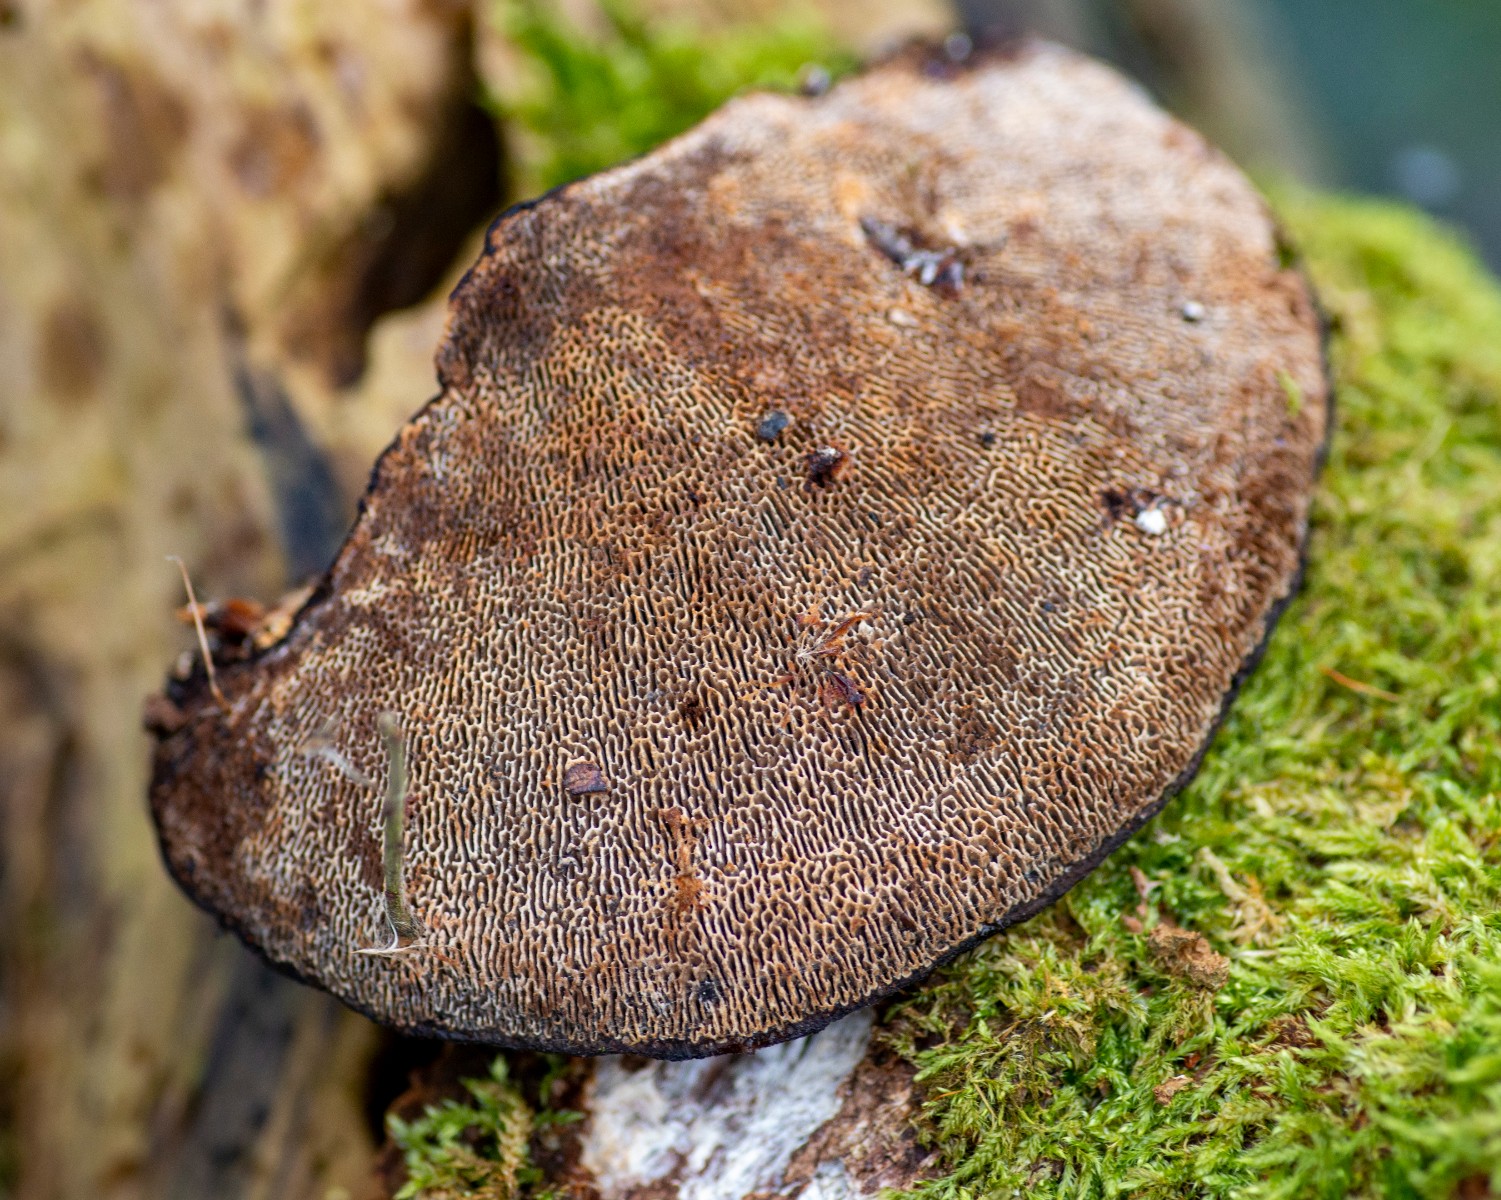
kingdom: Fungi
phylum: Basidiomycota
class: Agaricomycetes
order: Polyporales
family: Polyporaceae
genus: Daedaleopsis
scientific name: Daedaleopsis confragosa
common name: rødmende læderporesvamp
